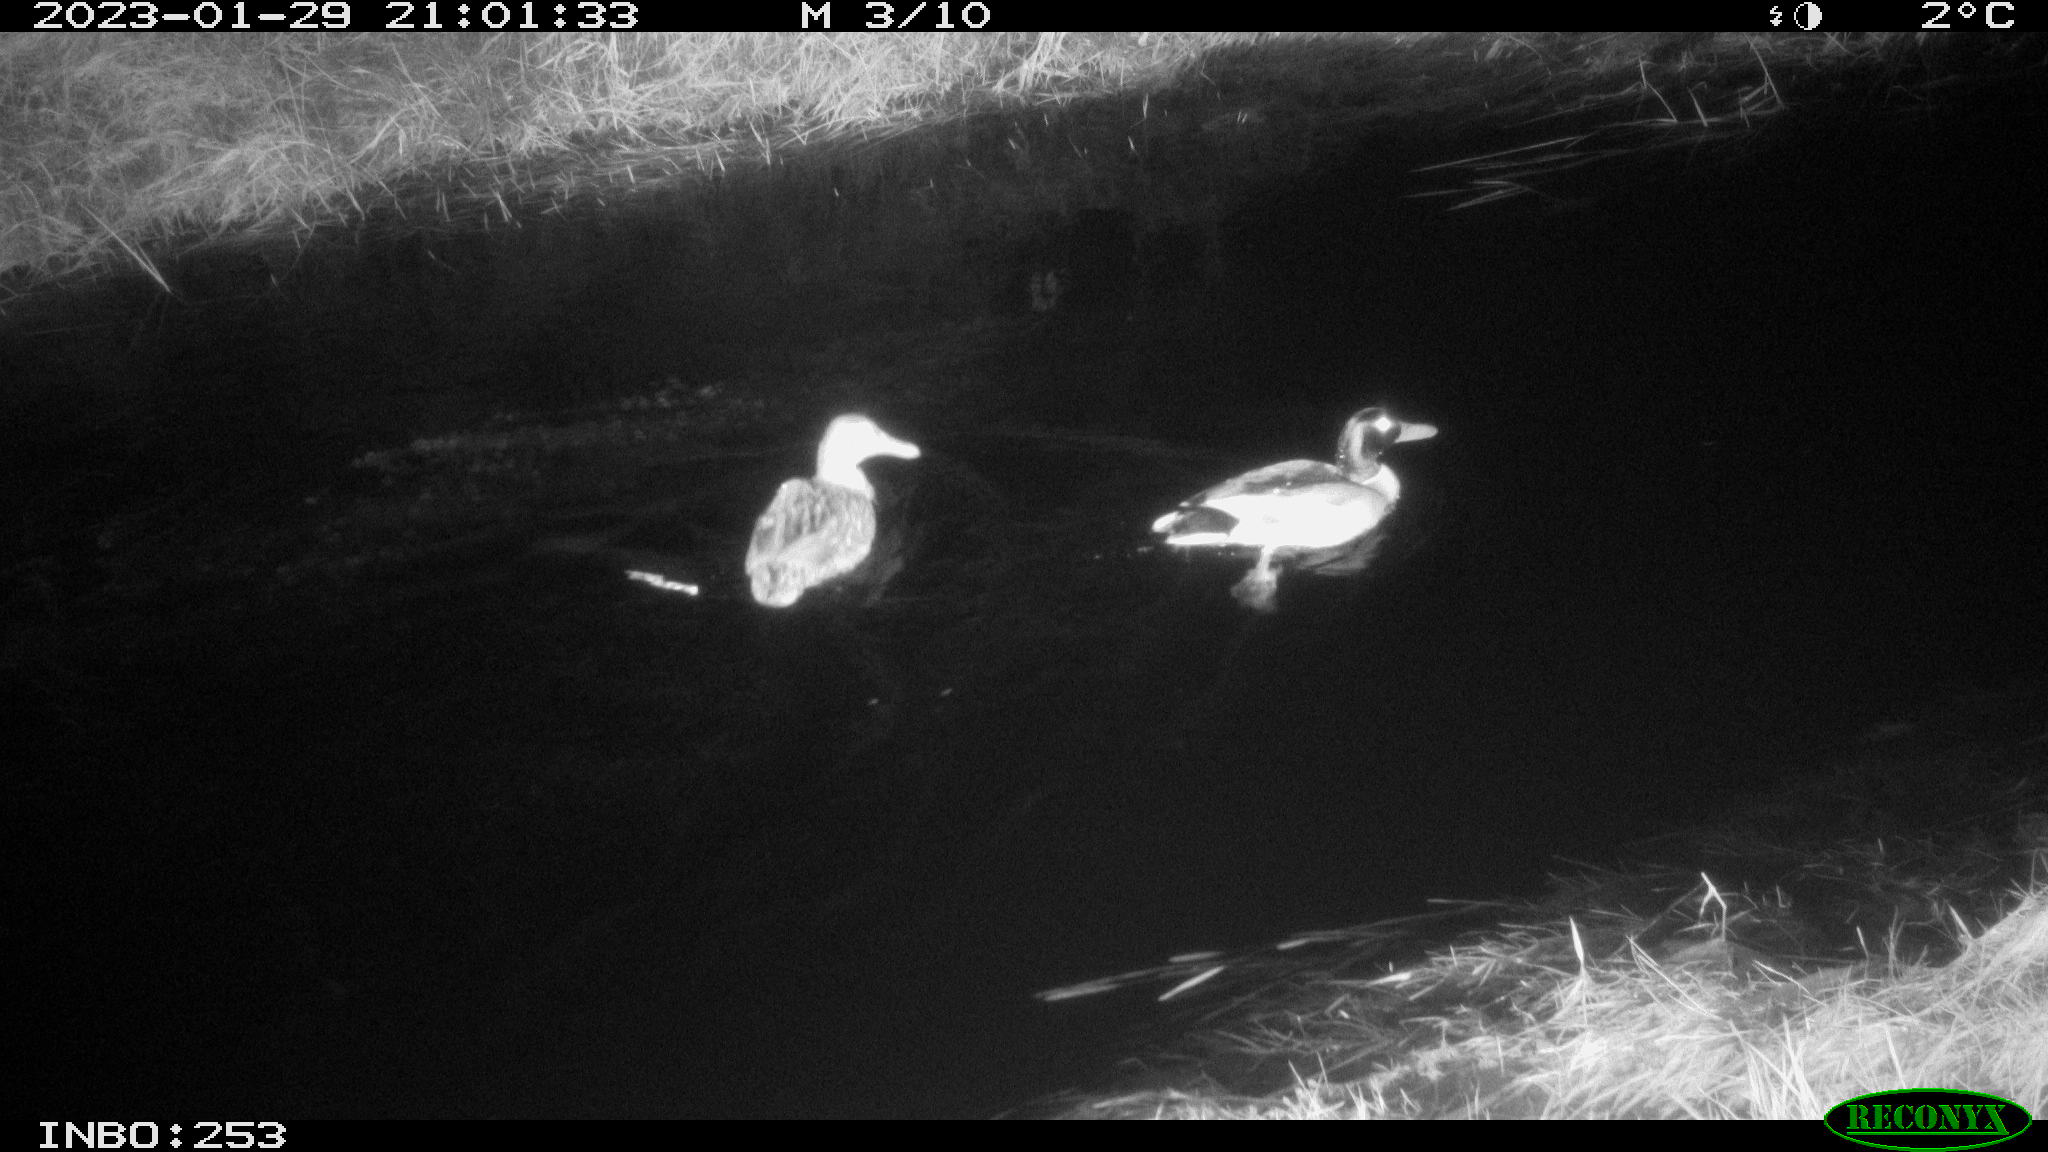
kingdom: Animalia
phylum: Chordata
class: Aves
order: Anseriformes
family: Anatidae
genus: Anas
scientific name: Anas
